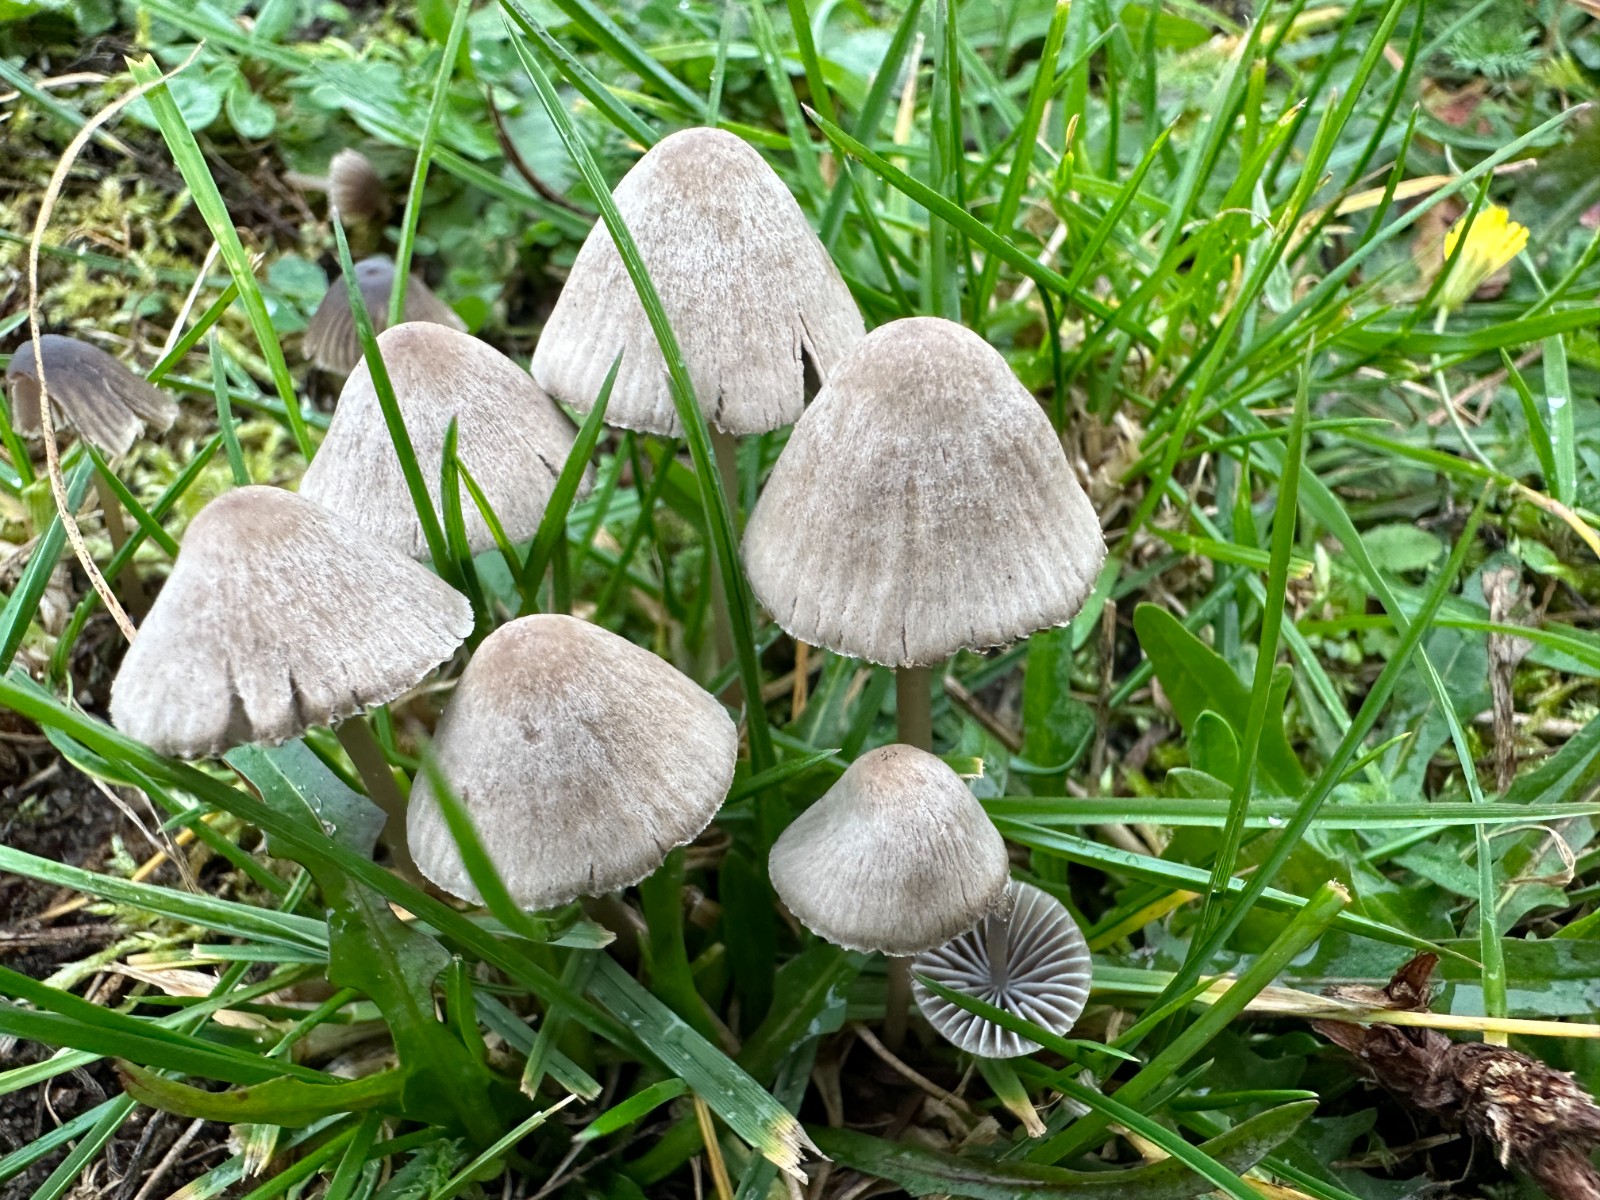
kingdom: Fungi
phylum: Basidiomycota
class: Agaricomycetes
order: Agaricales
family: Mycenaceae
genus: Mycena
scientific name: Mycena aetites
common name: plæne-huesvamp
